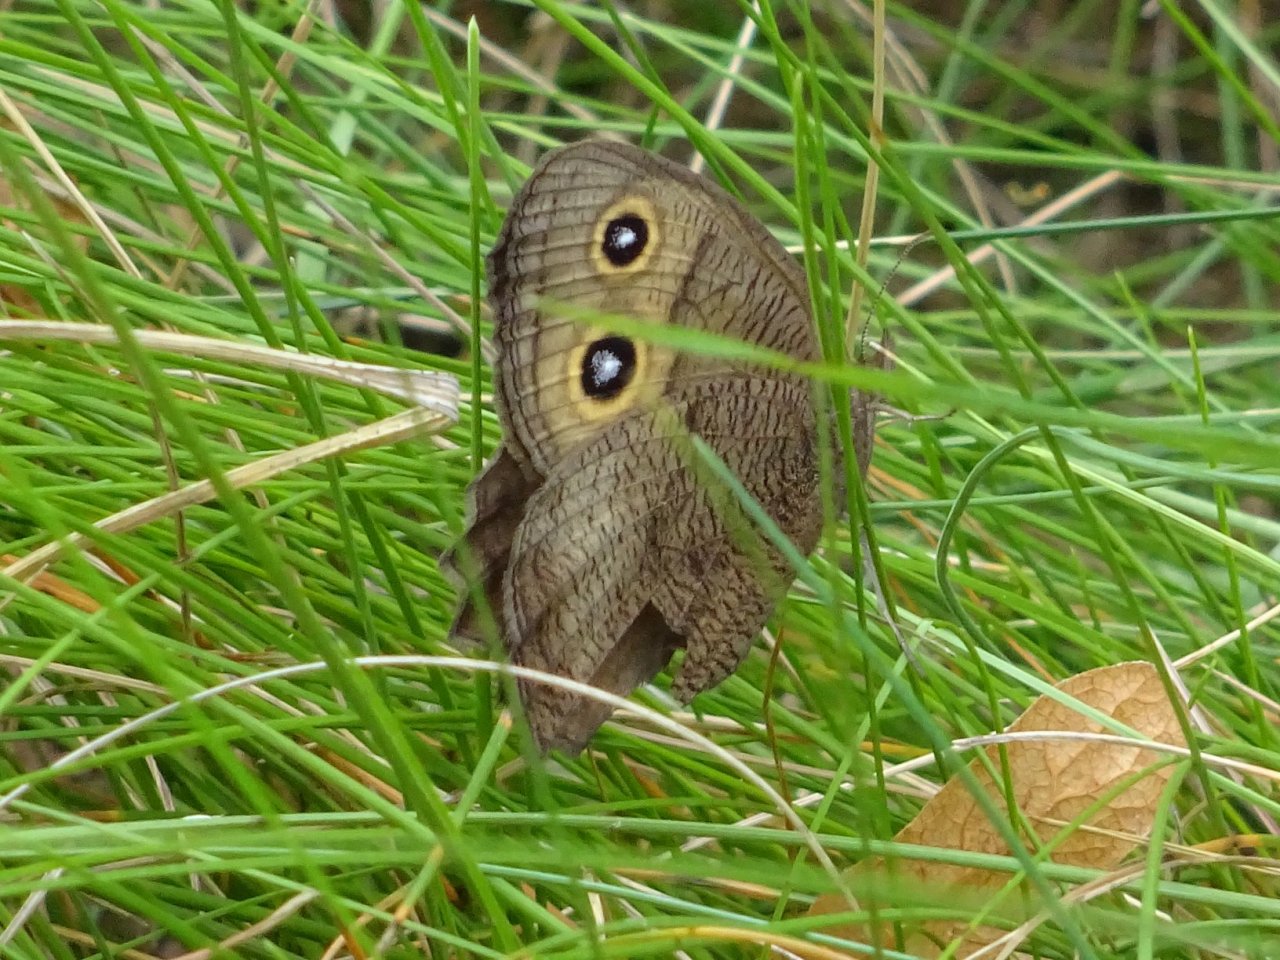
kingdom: Animalia
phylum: Arthropoda
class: Insecta
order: Lepidoptera
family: Nymphalidae
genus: Cercyonis
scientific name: Cercyonis pegala
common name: Common Wood-Nymph
